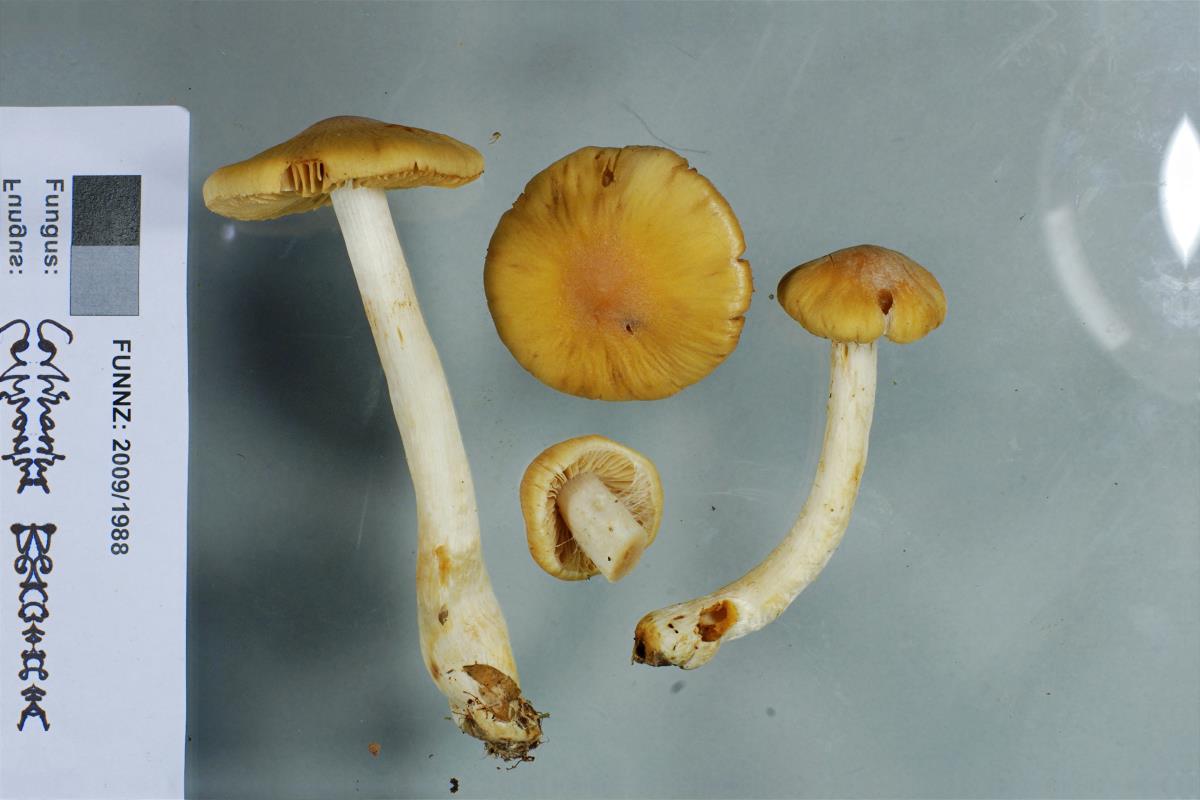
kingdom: Fungi
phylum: Basidiomycota
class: Agaricomycetes
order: Agaricales
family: Cortinariaceae
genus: Cortinarius
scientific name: Cortinarius paraxanthus
